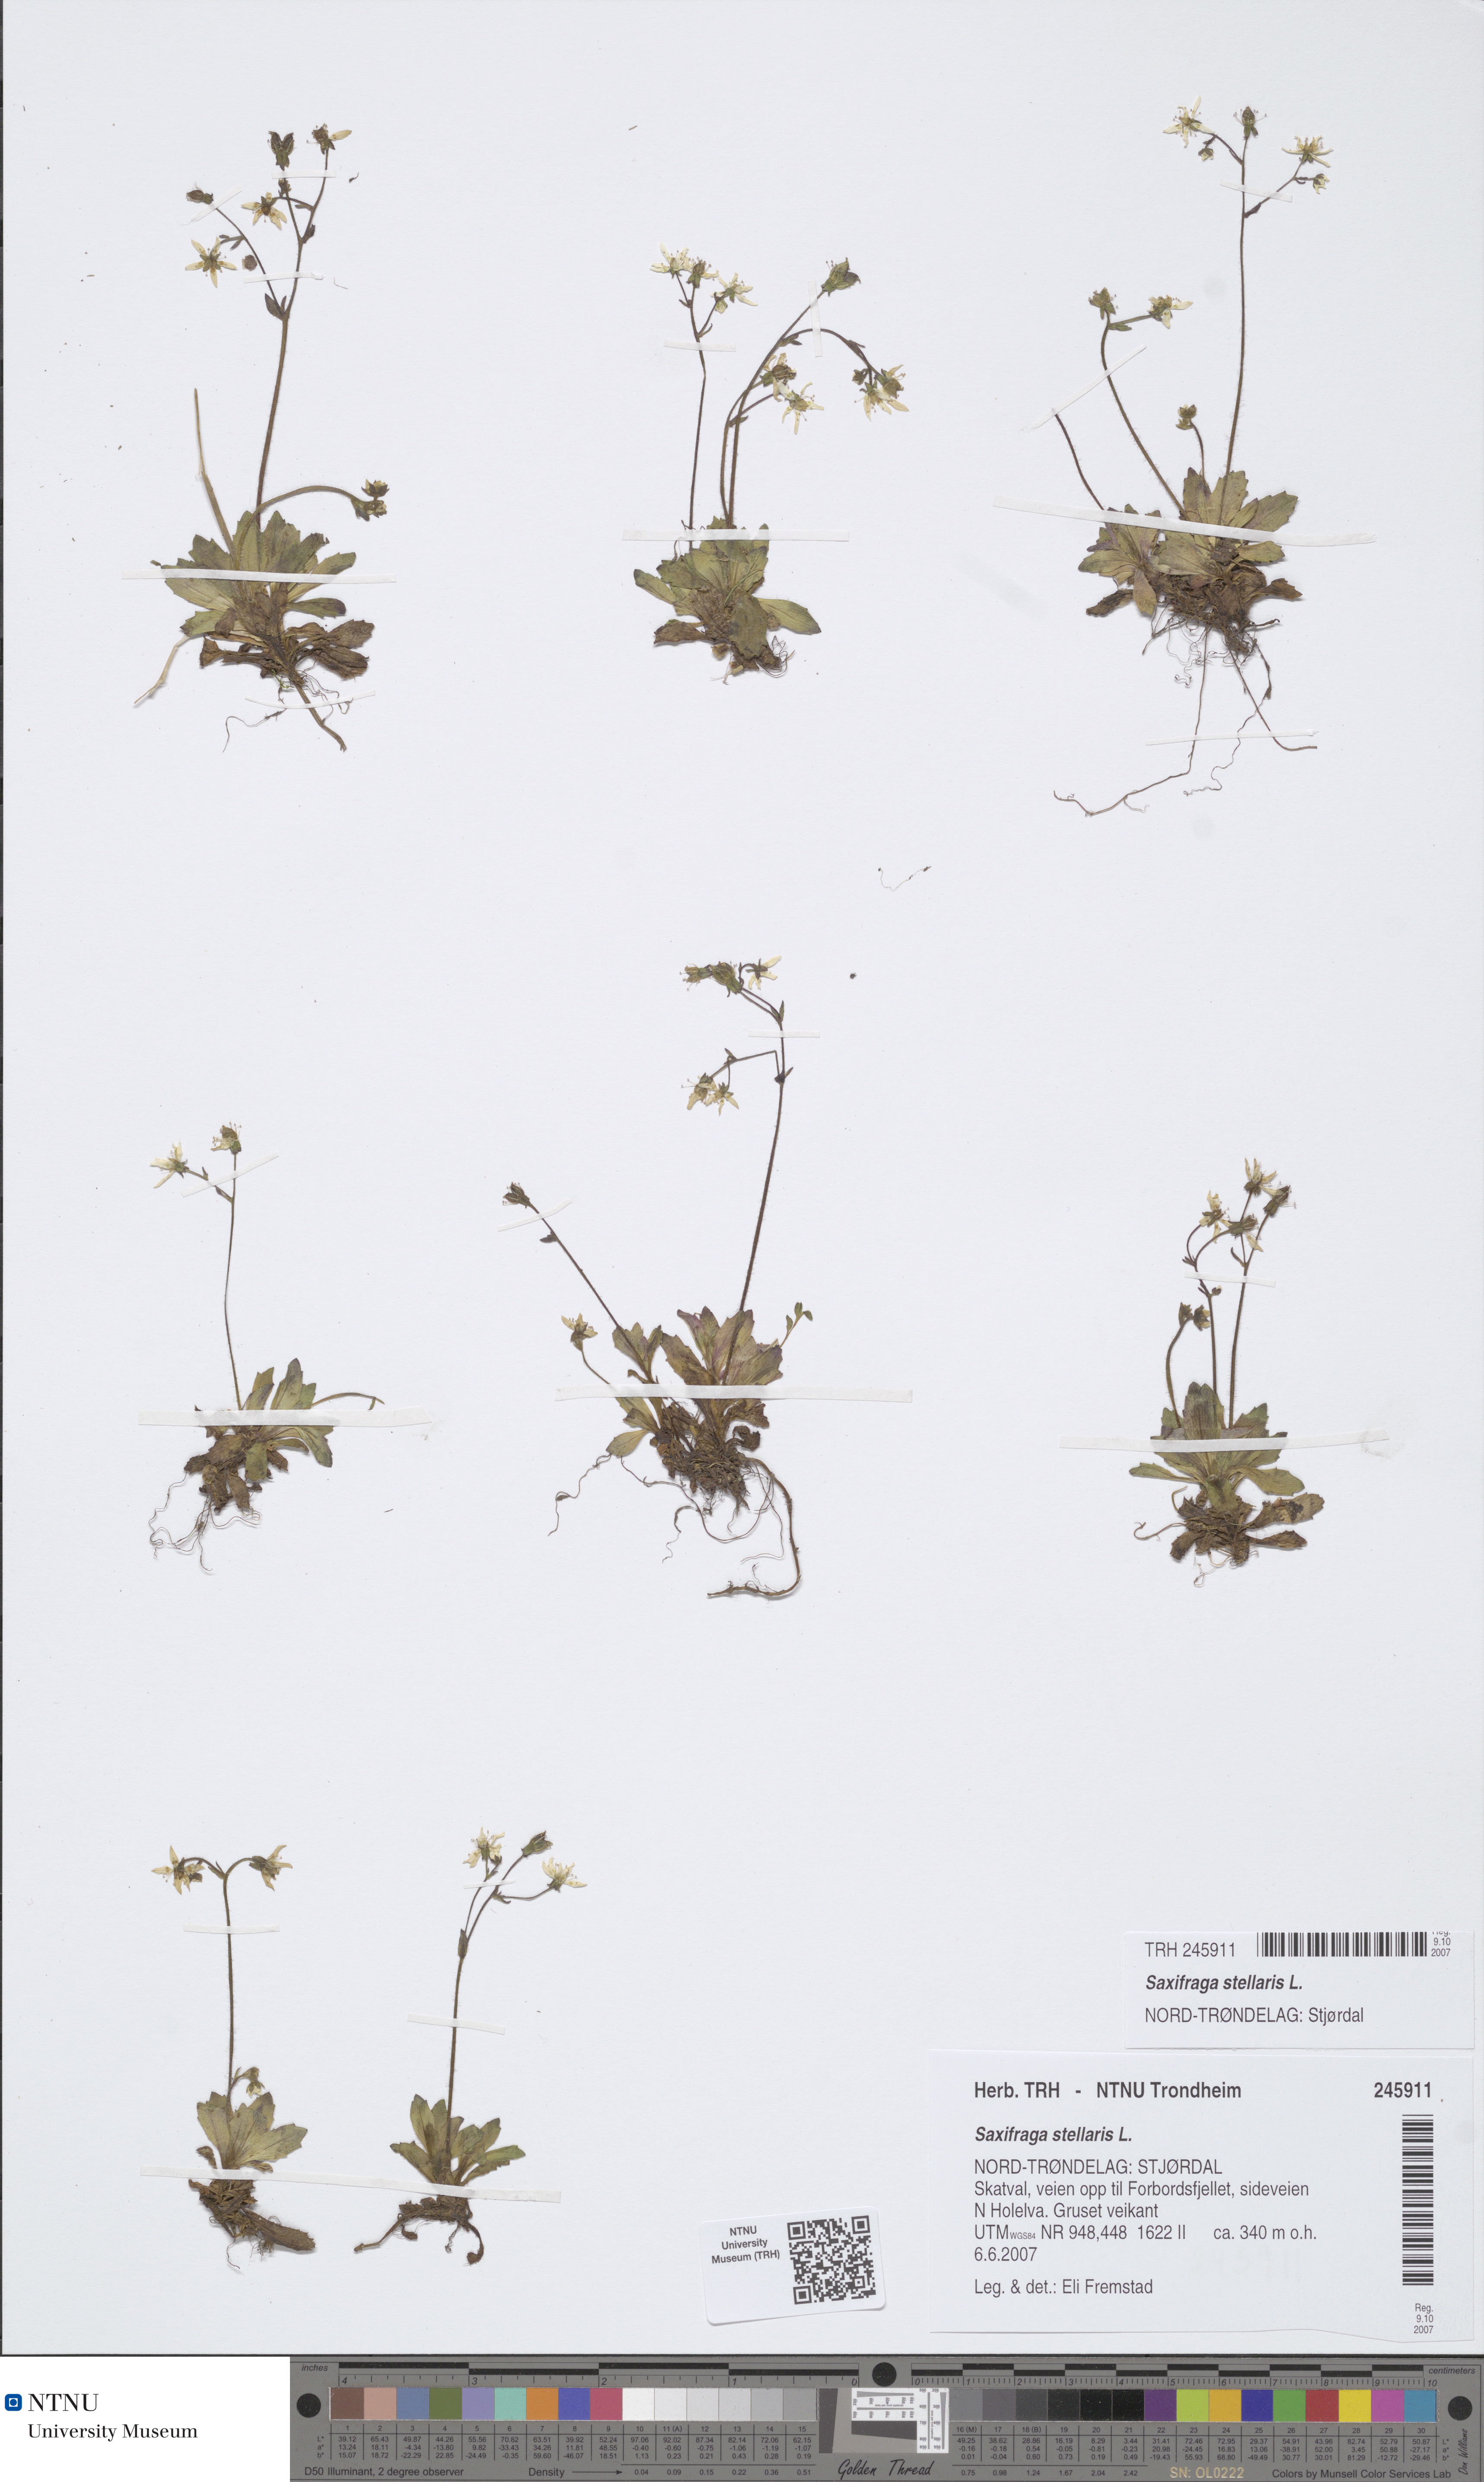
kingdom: Plantae
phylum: Tracheophyta
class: Magnoliopsida
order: Saxifragales
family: Saxifragaceae
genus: Micranthes
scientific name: Micranthes stellaris
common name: Starry saxifrage
